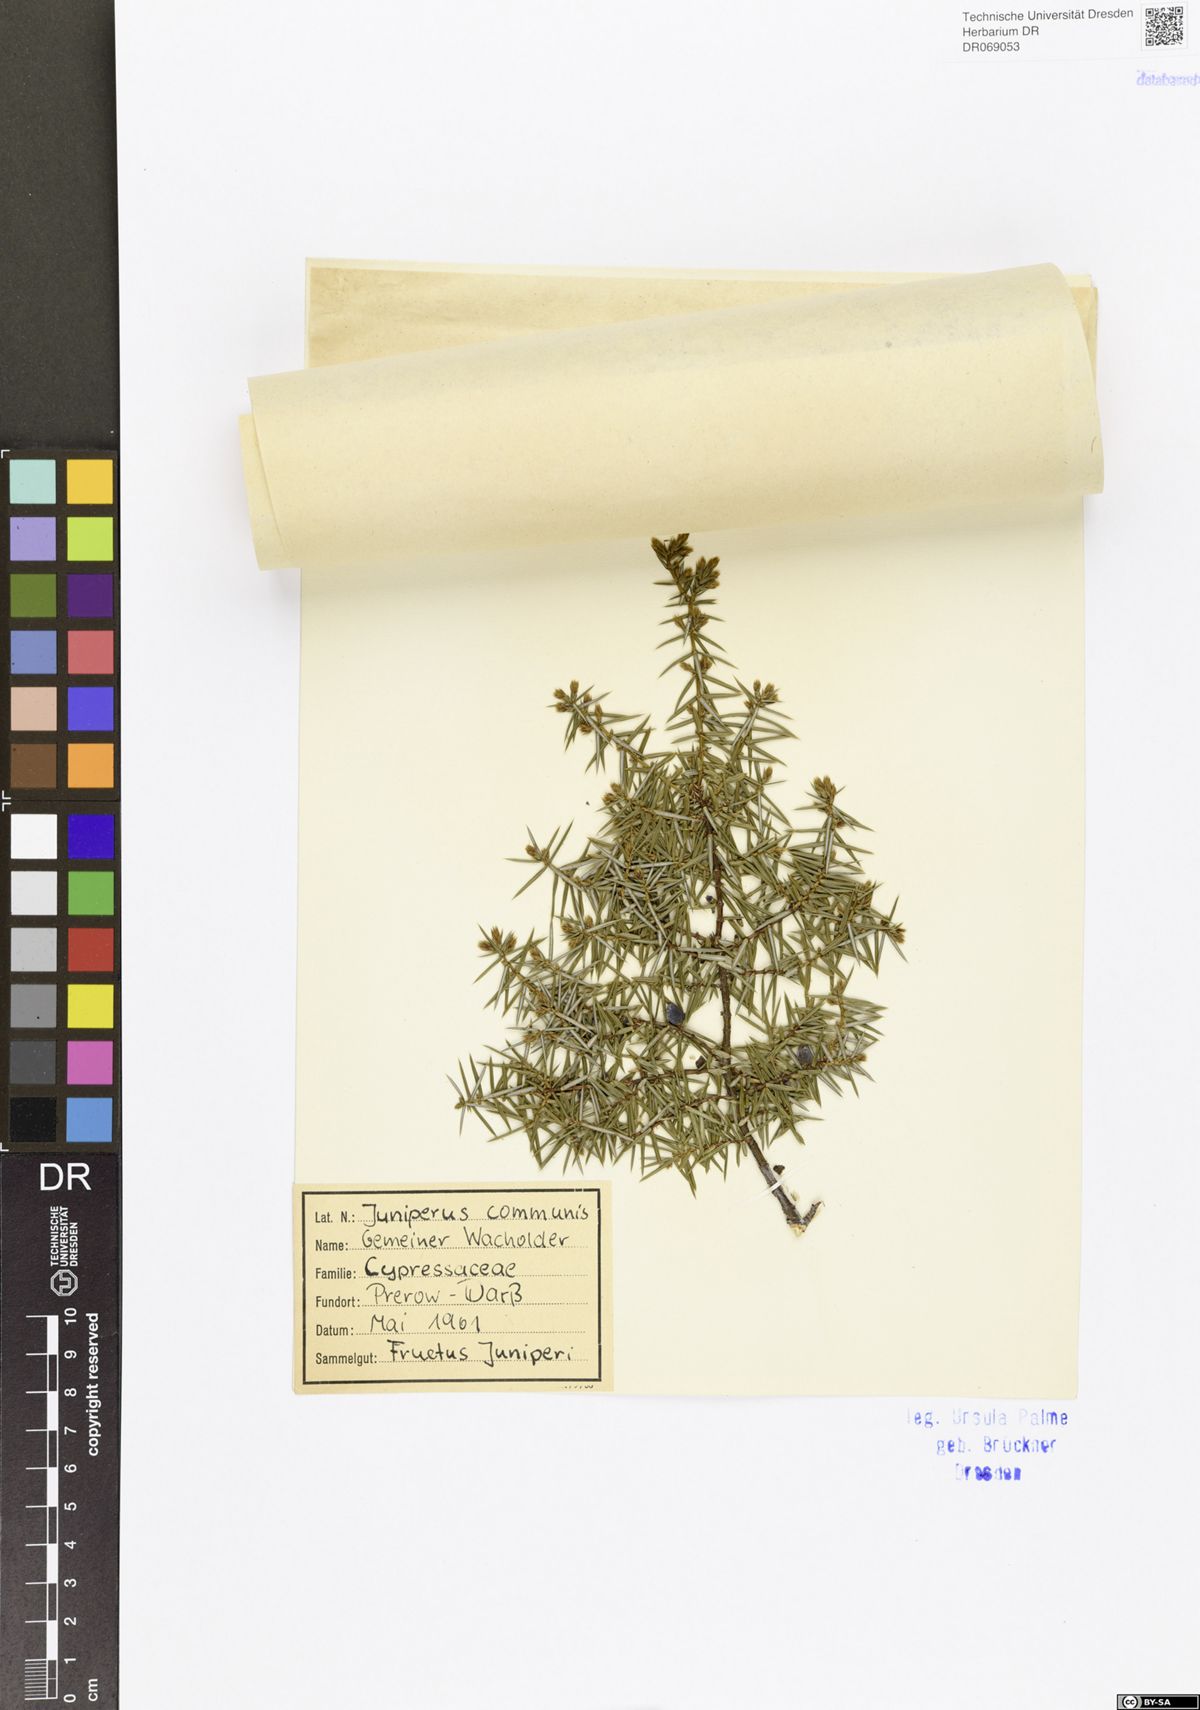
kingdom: Plantae
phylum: Tracheophyta
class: Pinopsida
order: Pinales
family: Cupressaceae
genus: Juniperus
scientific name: Juniperus communis
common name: Common juniper
